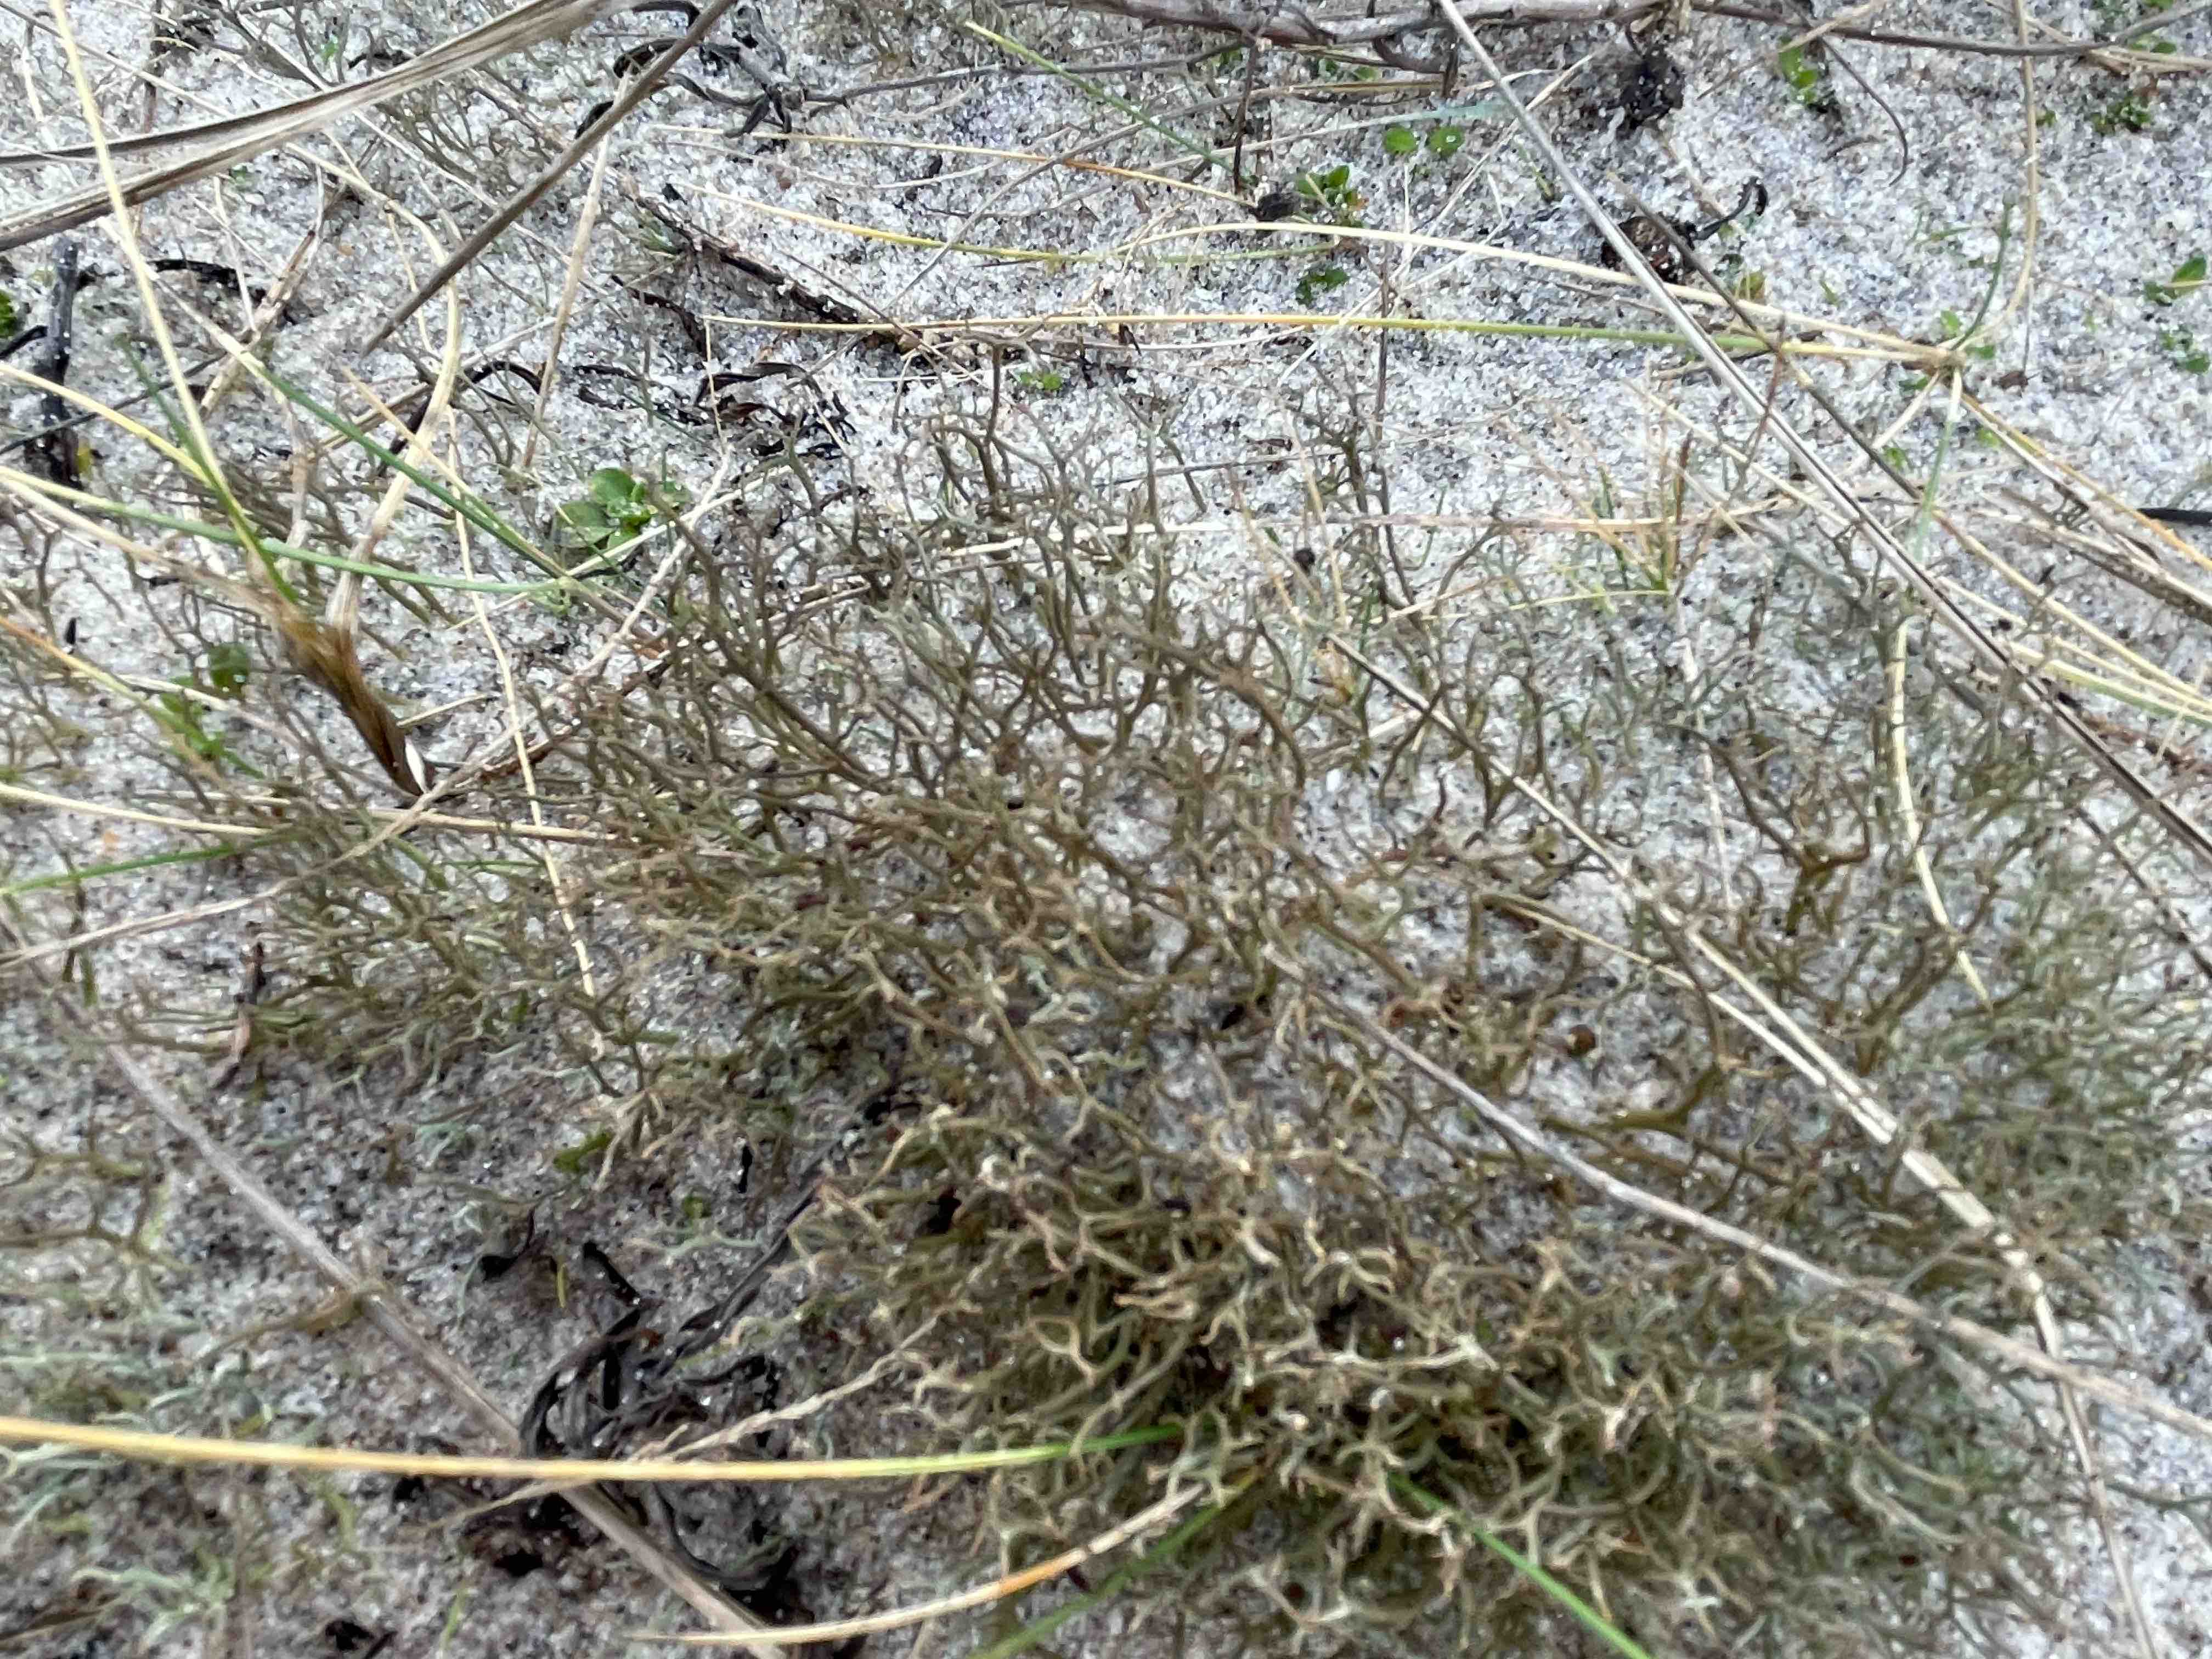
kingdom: Fungi
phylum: Ascomycota
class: Lecanoromycetes
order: Lecanorales
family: Cladoniaceae
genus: Cladonia
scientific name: Cladonia furcata
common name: kløftet bægerlav
